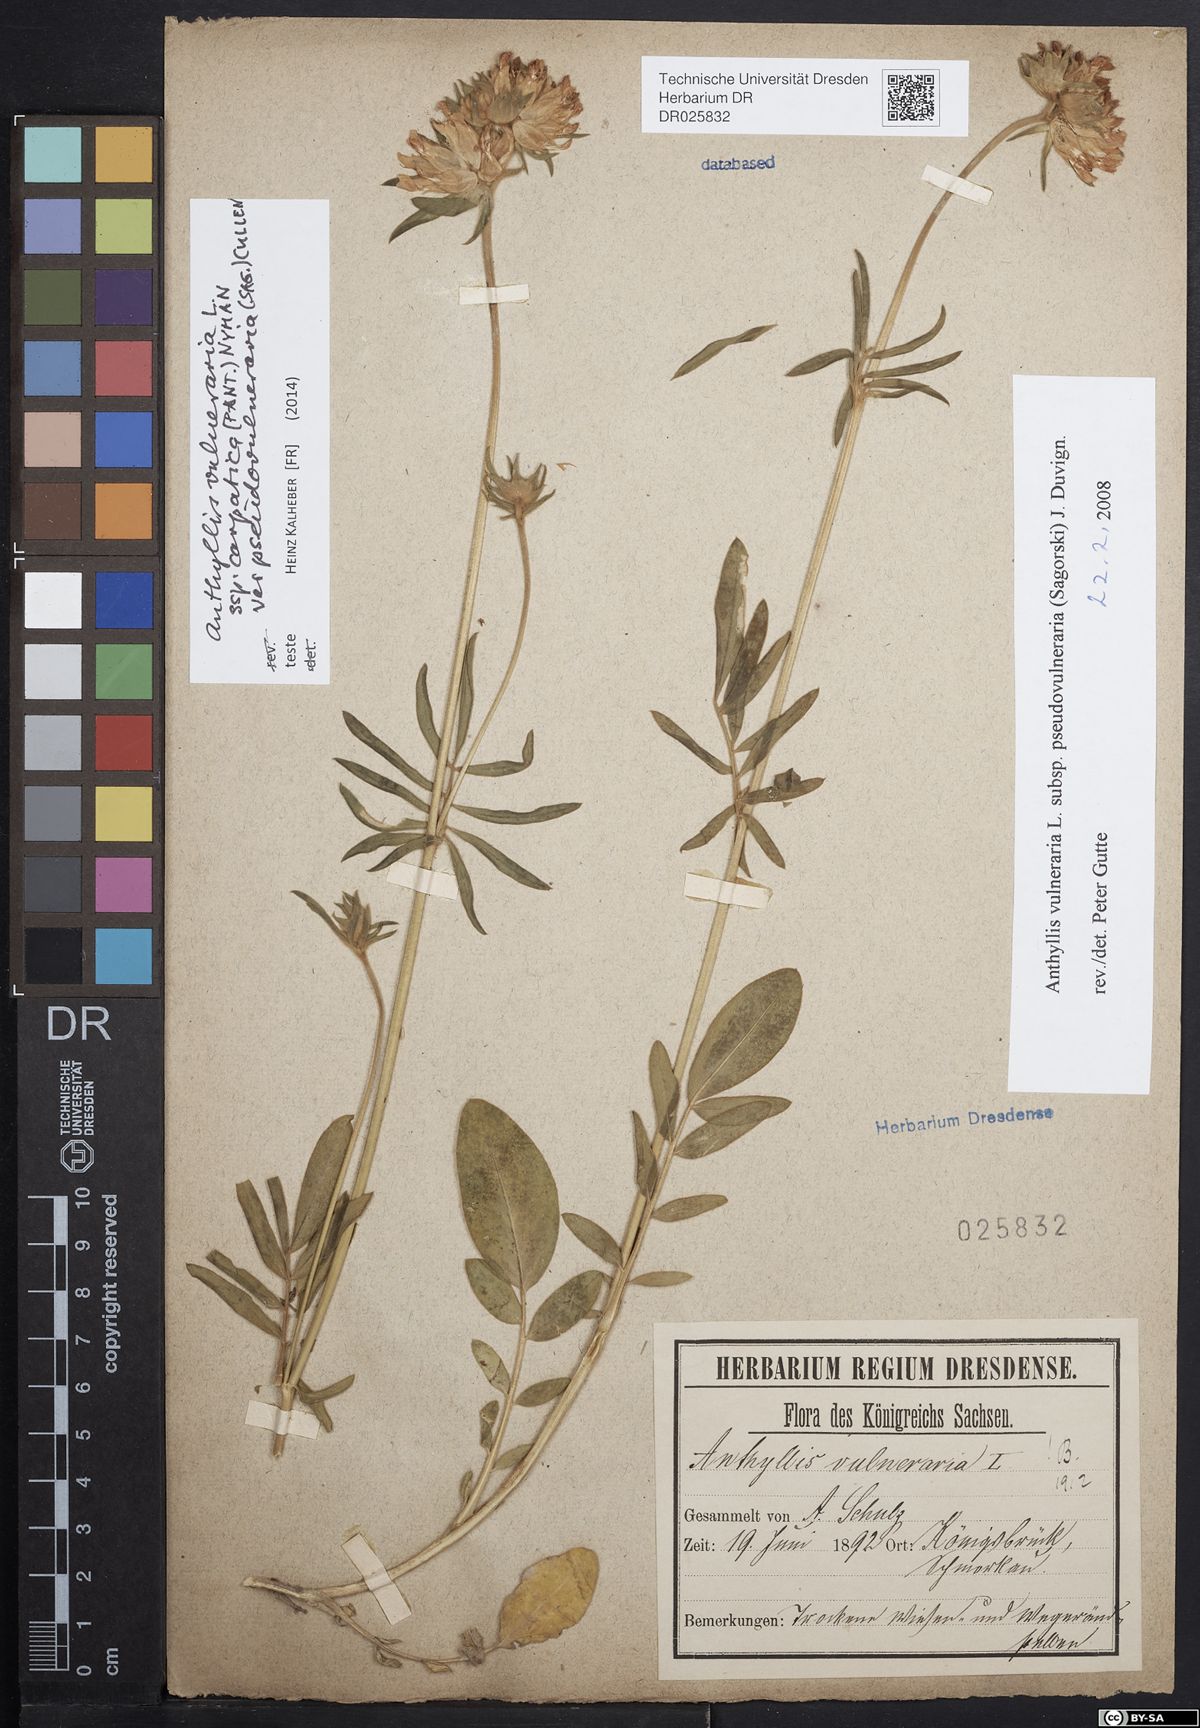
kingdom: Plantae
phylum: Tracheophyta
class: Magnoliopsida
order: Fabales
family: Fabaceae
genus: Anthyllis
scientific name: Anthyllis vulneraria
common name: Kidney vetch
